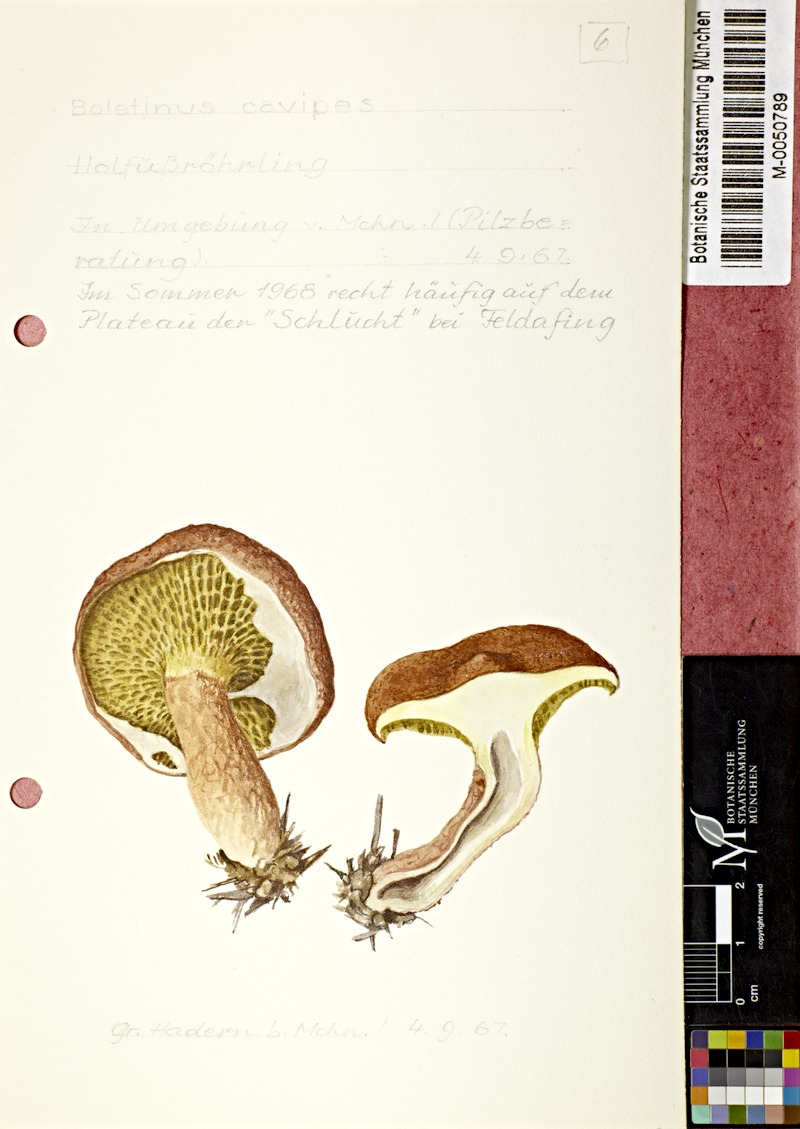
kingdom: Fungi
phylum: Basidiomycota
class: Agaricomycetes
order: Boletales
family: Suillaceae
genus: Suillus
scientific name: Suillus cavipes
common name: Hollow bolete
